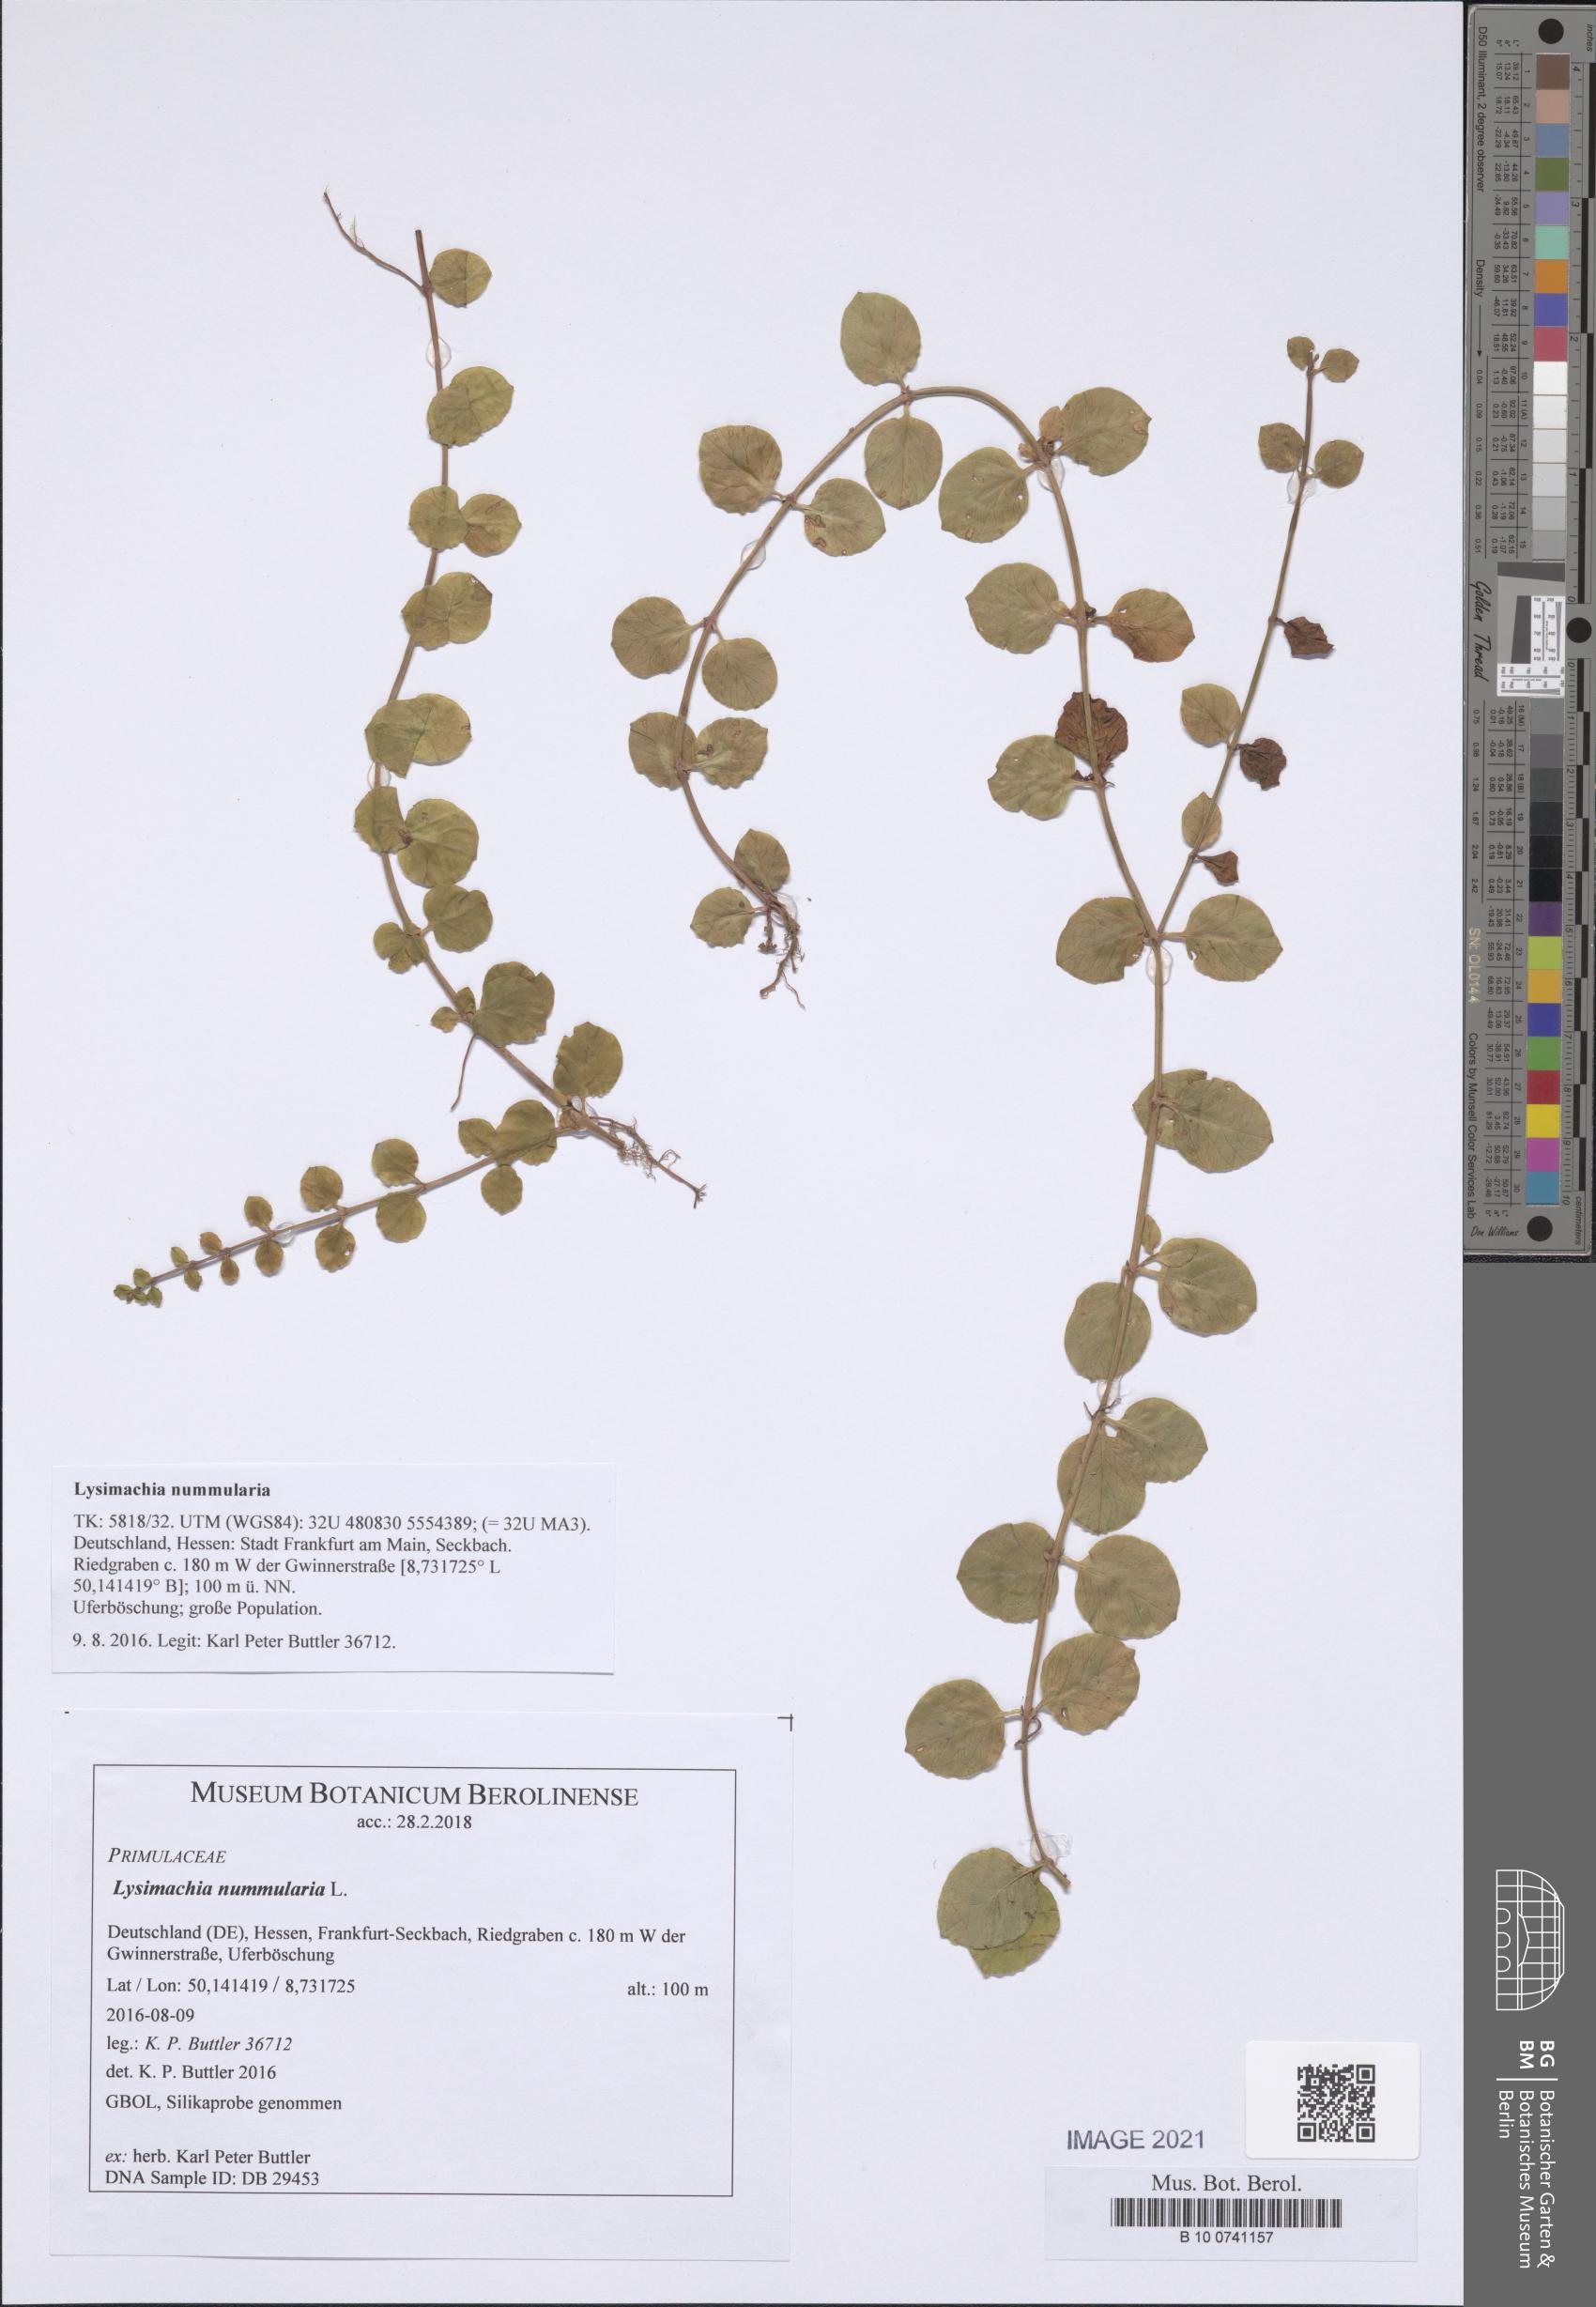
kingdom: Plantae
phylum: Tracheophyta
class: Magnoliopsida
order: Ericales
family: Primulaceae
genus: Lysimachia
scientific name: Lysimachia nummularia
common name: Moneywort
